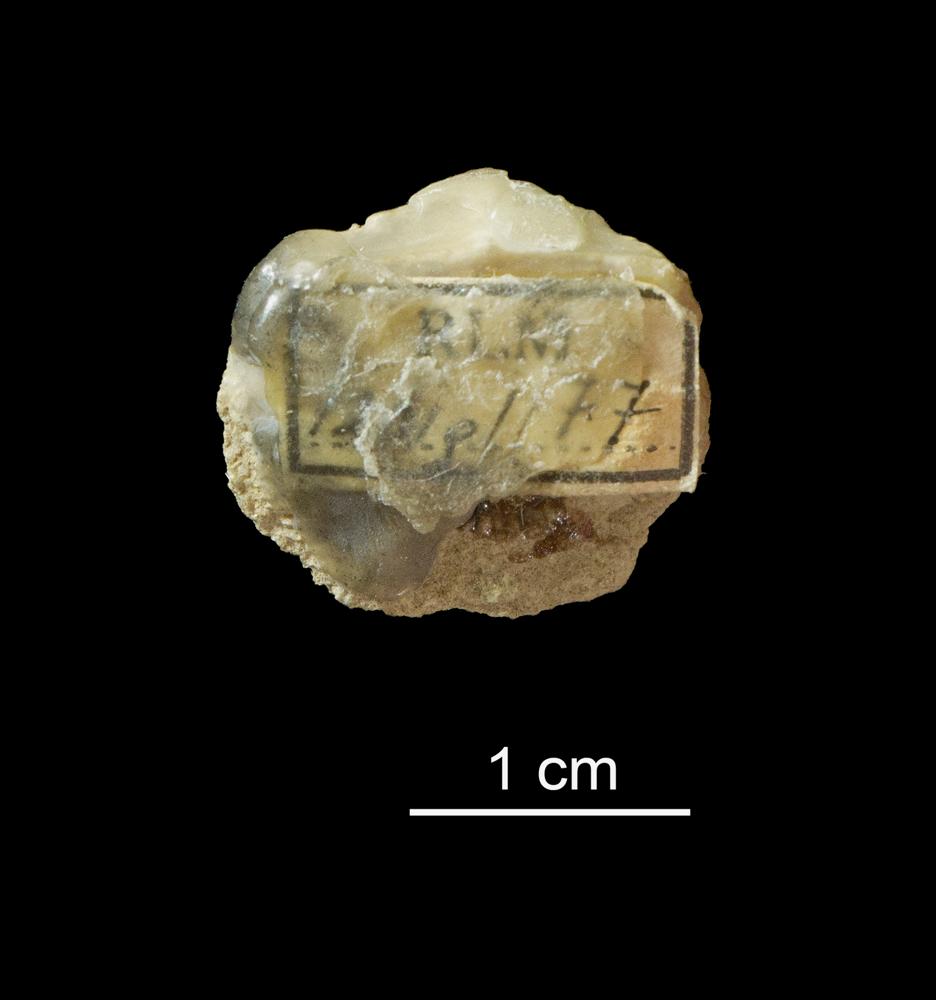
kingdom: Animalia
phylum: Brachiopoda
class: Rhynchonellata
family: Clitambonitidae
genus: Clitambonites
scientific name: Clitambonites Orthisina schmidti
